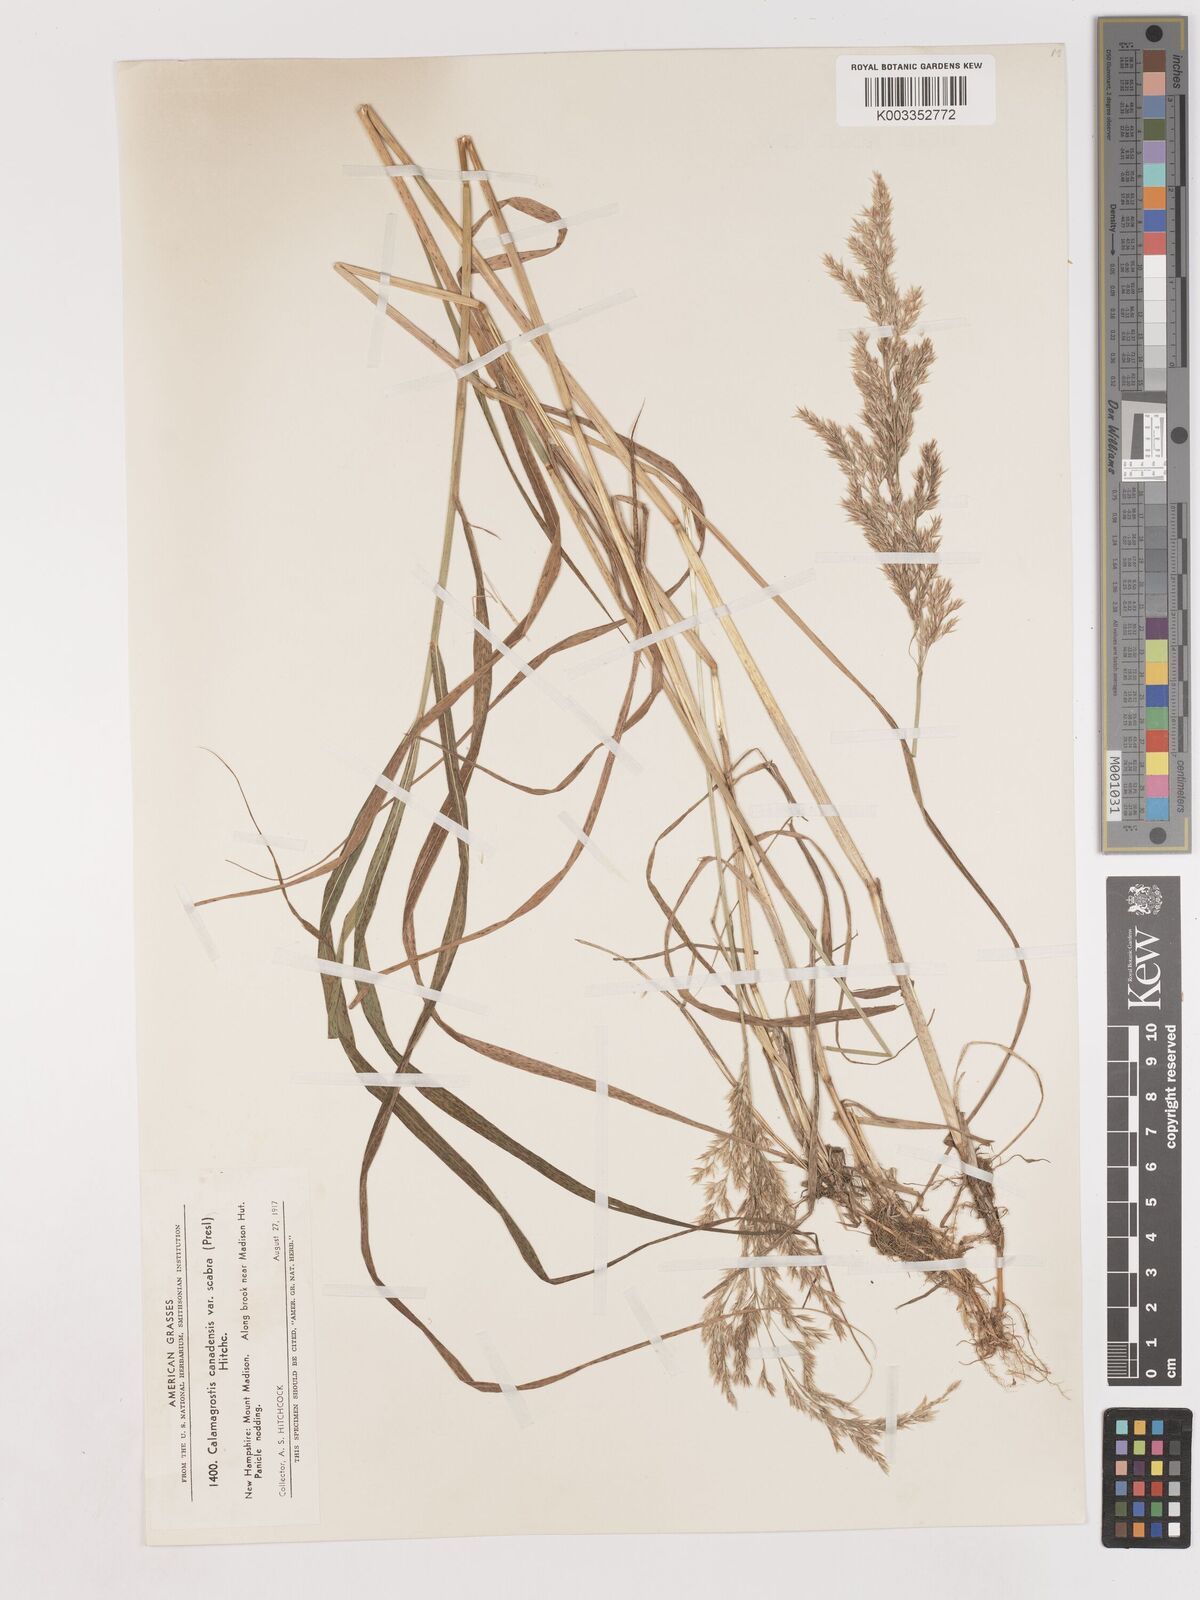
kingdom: Plantae
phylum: Tracheophyta
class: Liliopsida
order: Poales
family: Poaceae
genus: Calamagrostis
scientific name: Calamagrostis canadensis
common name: Canada bluejoint
